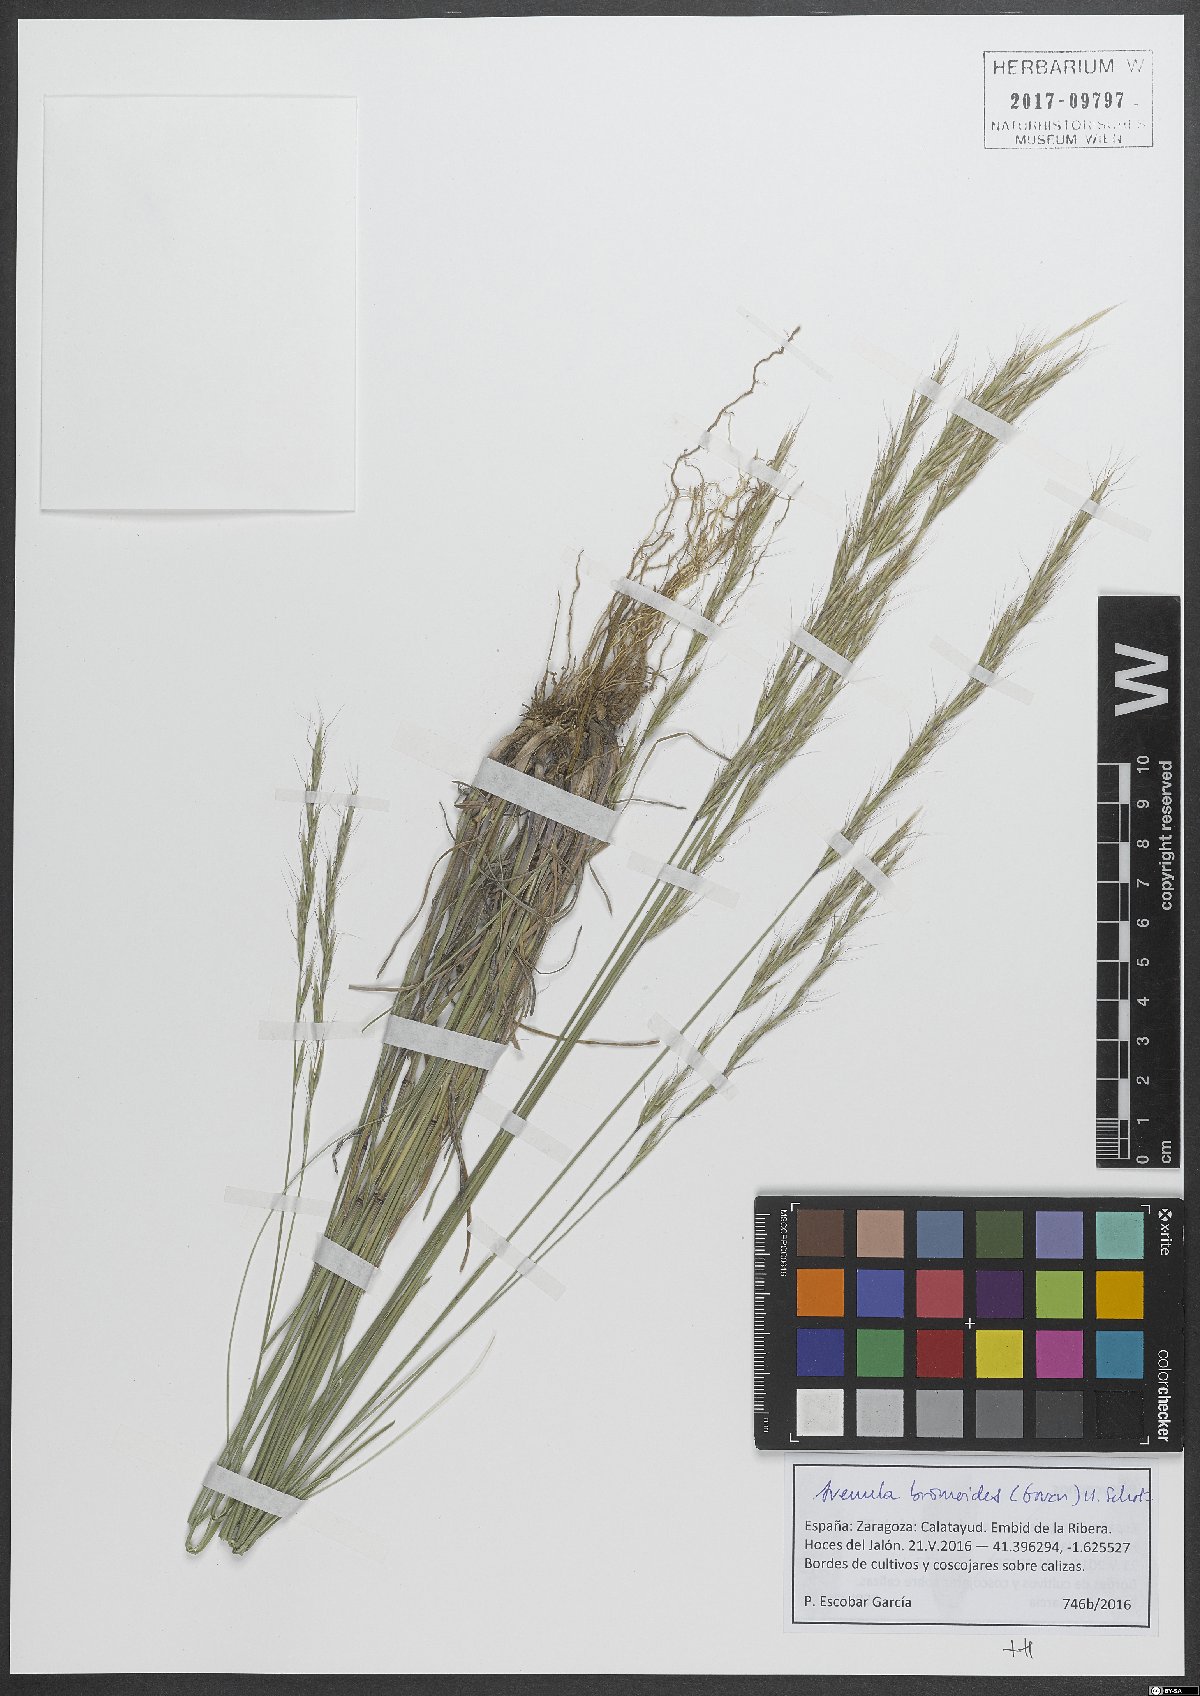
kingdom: Plantae
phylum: Tracheophyta
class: Liliopsida
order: Poales
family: Poaceae
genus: Helictochloa
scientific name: Helictochloa bromoides
